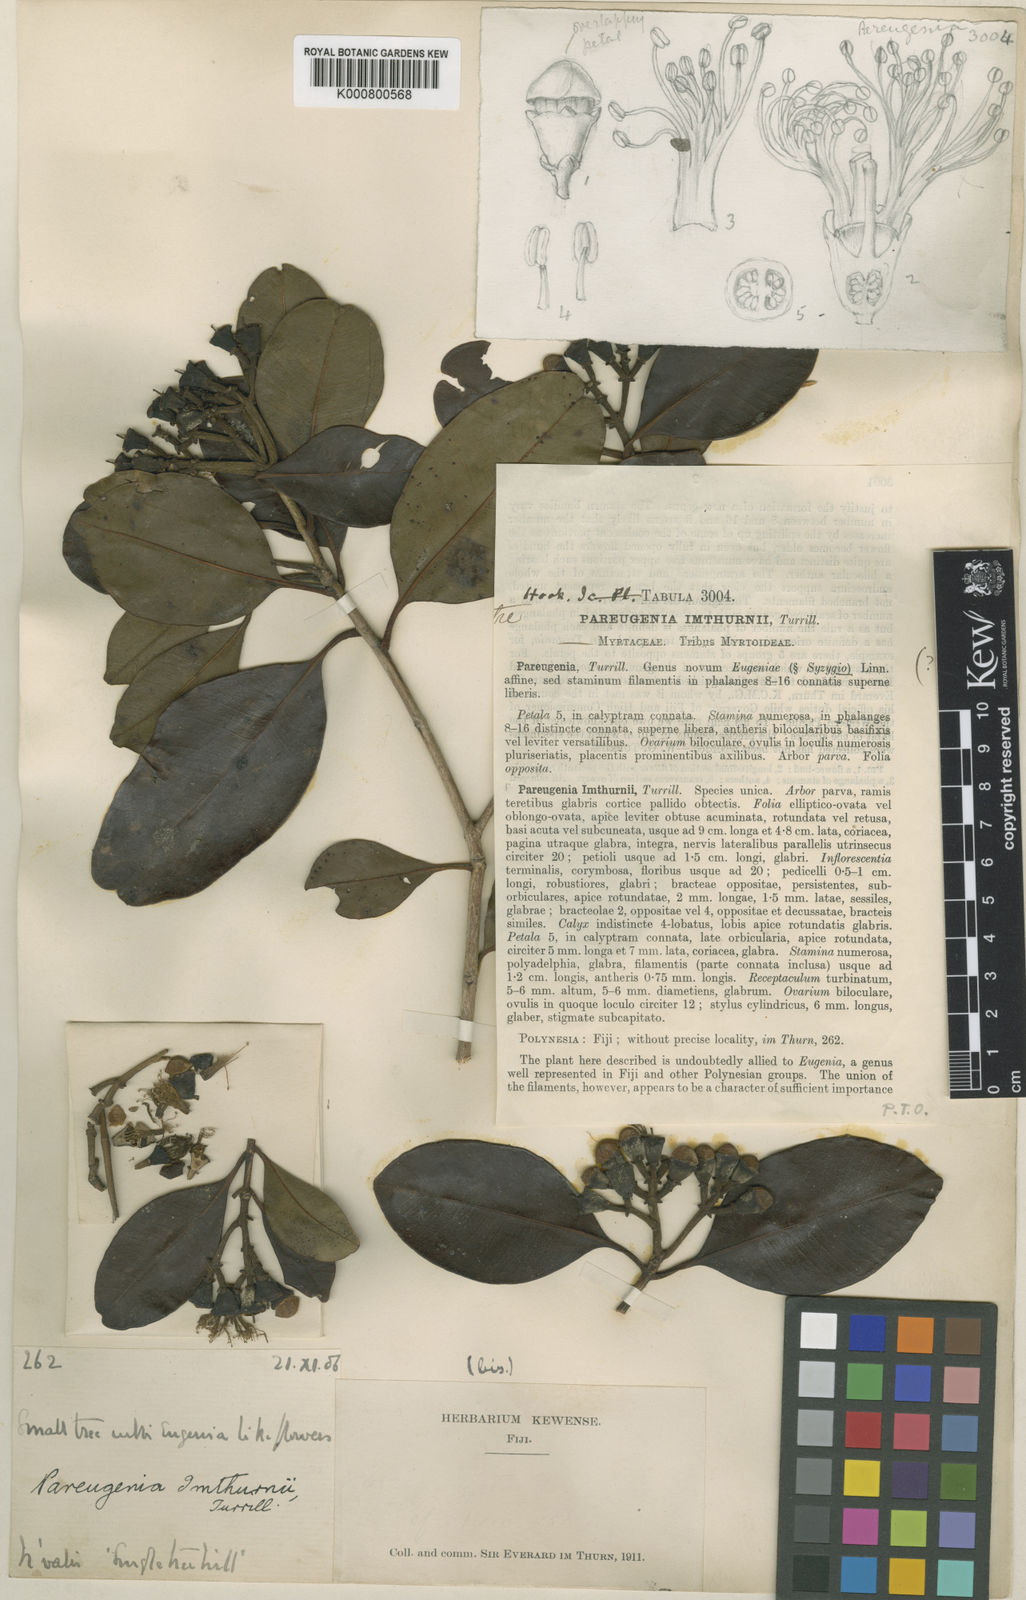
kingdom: Plantae
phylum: Tracheophyta
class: Magnoliopsida
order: Myrtales
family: Myrtaceae
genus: Syzygium
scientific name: Syzygium brackenridgei
